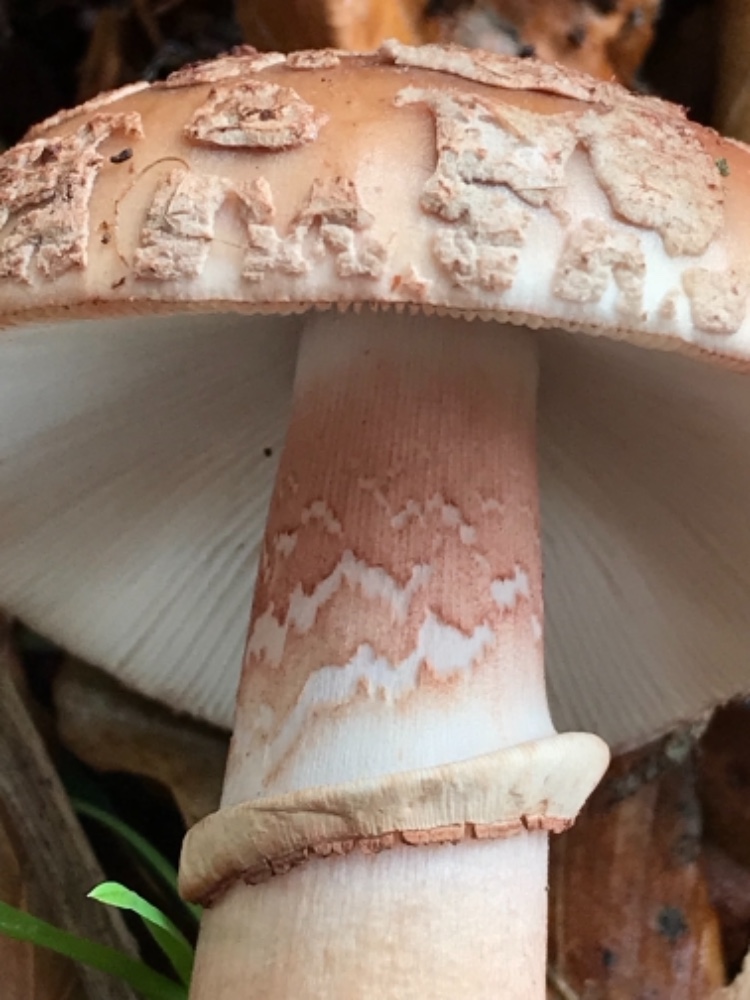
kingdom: Fungi
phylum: Basidiomycota
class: Agaricomycetes
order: Agaricales
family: Amanitaceae
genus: Amanita
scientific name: Amanita rubescens
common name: rødmende fluesvamp
